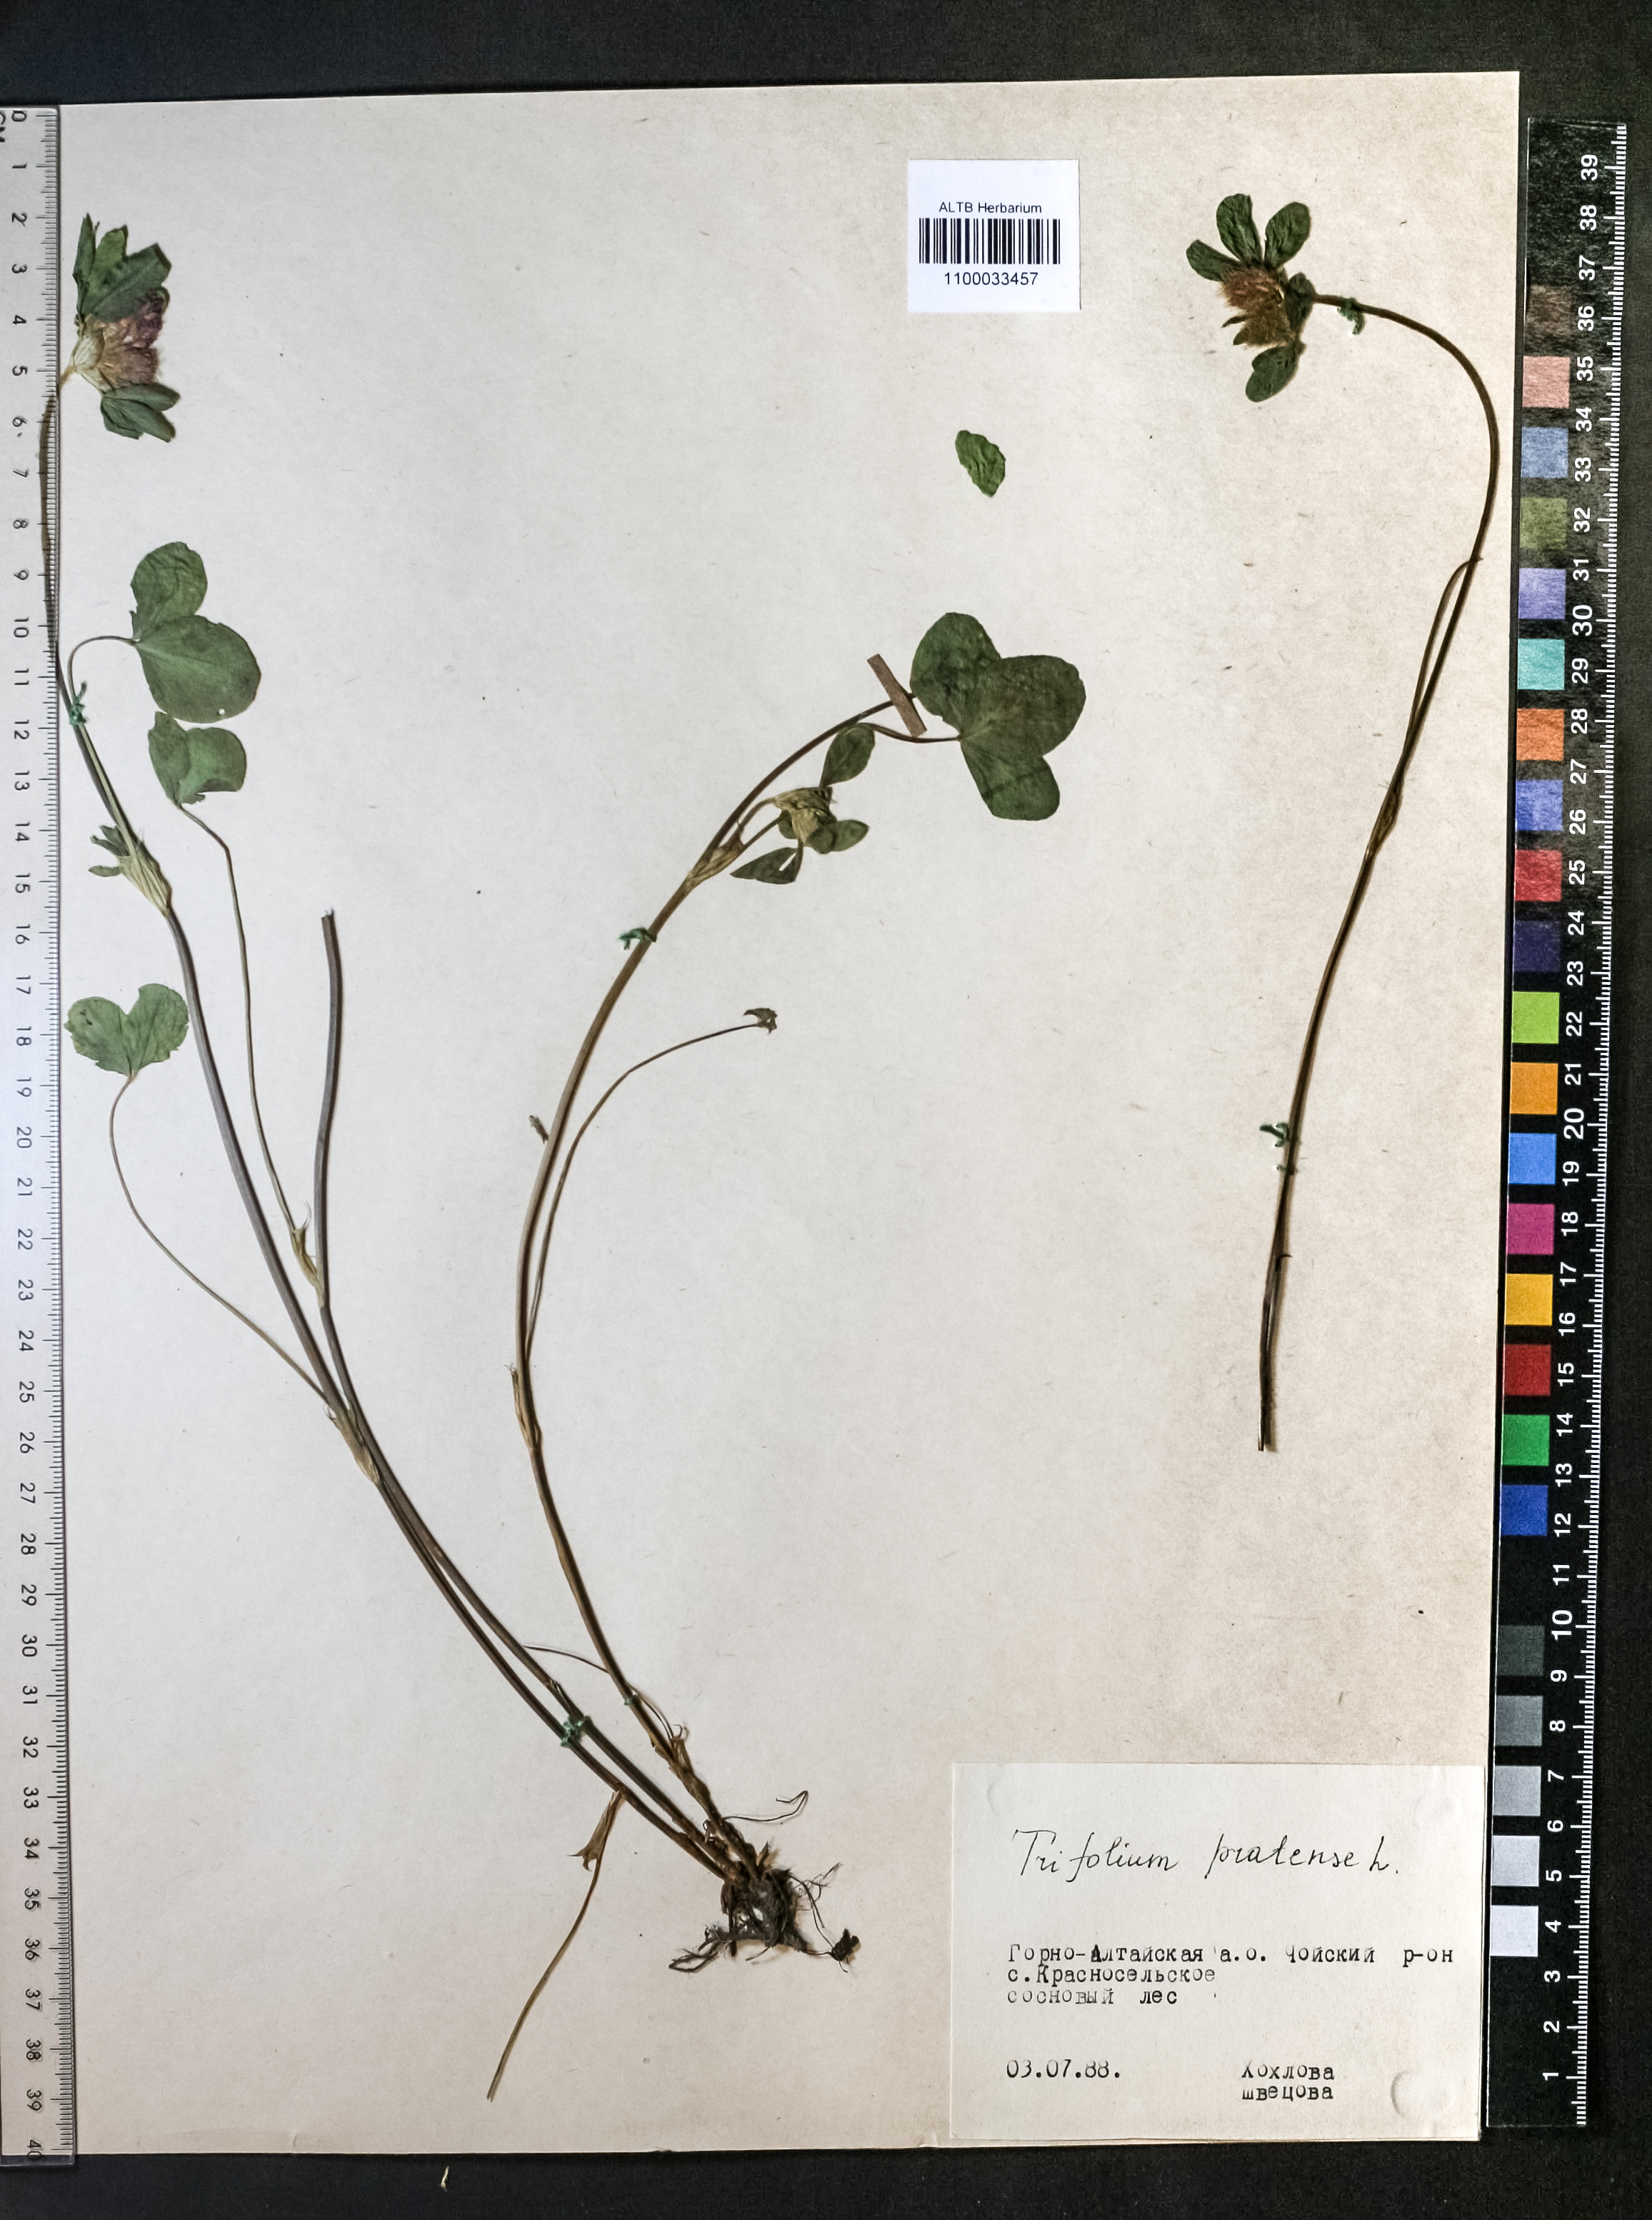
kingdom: Plantae
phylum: Tracheophyta
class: Magnoliopsida
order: Fabales
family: Fabaceae
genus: Trifolium
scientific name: Trifolium pratense
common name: Red clover
